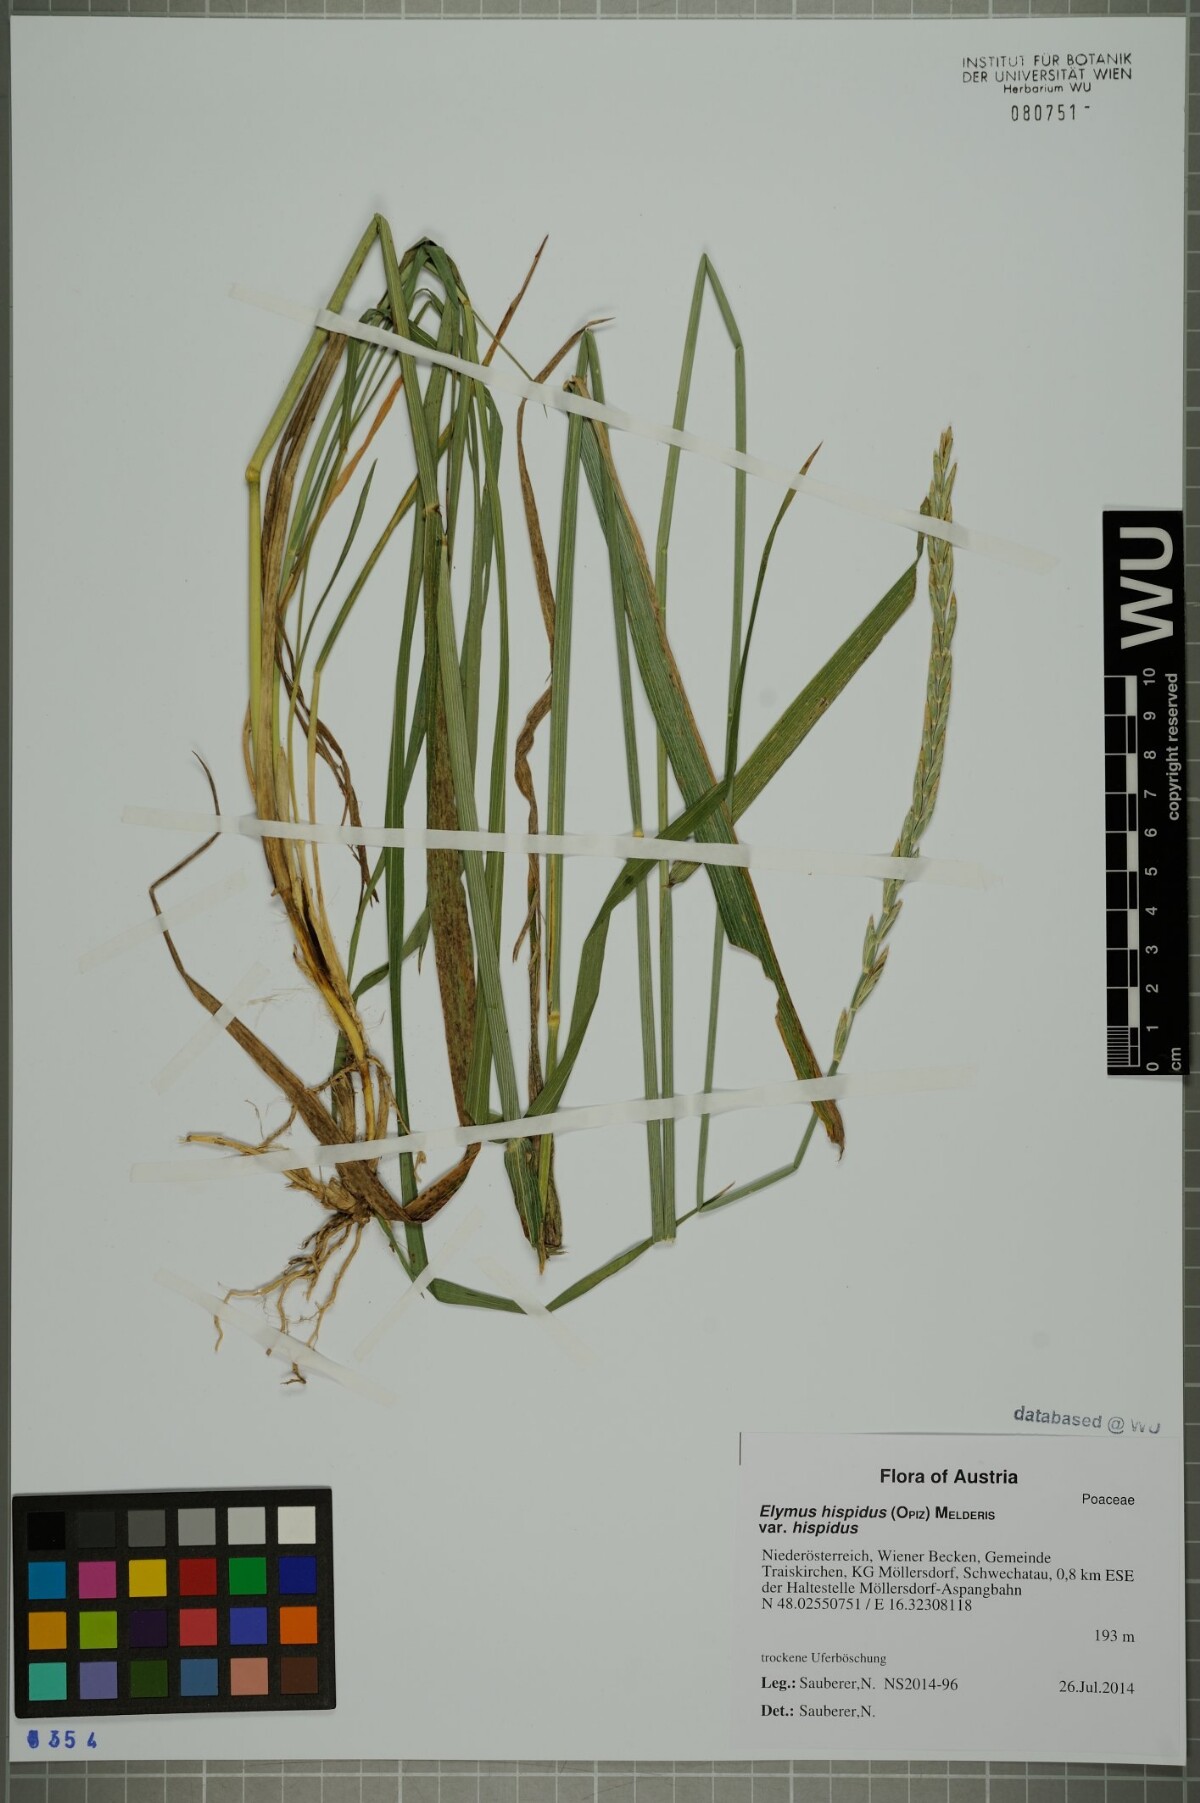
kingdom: Plantae
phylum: Tracheophyta
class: Liliopsida
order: Poales
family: Poaceae
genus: Thinopyrum
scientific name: Thinopyrum intermedium
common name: Intermediate wheatgrass
